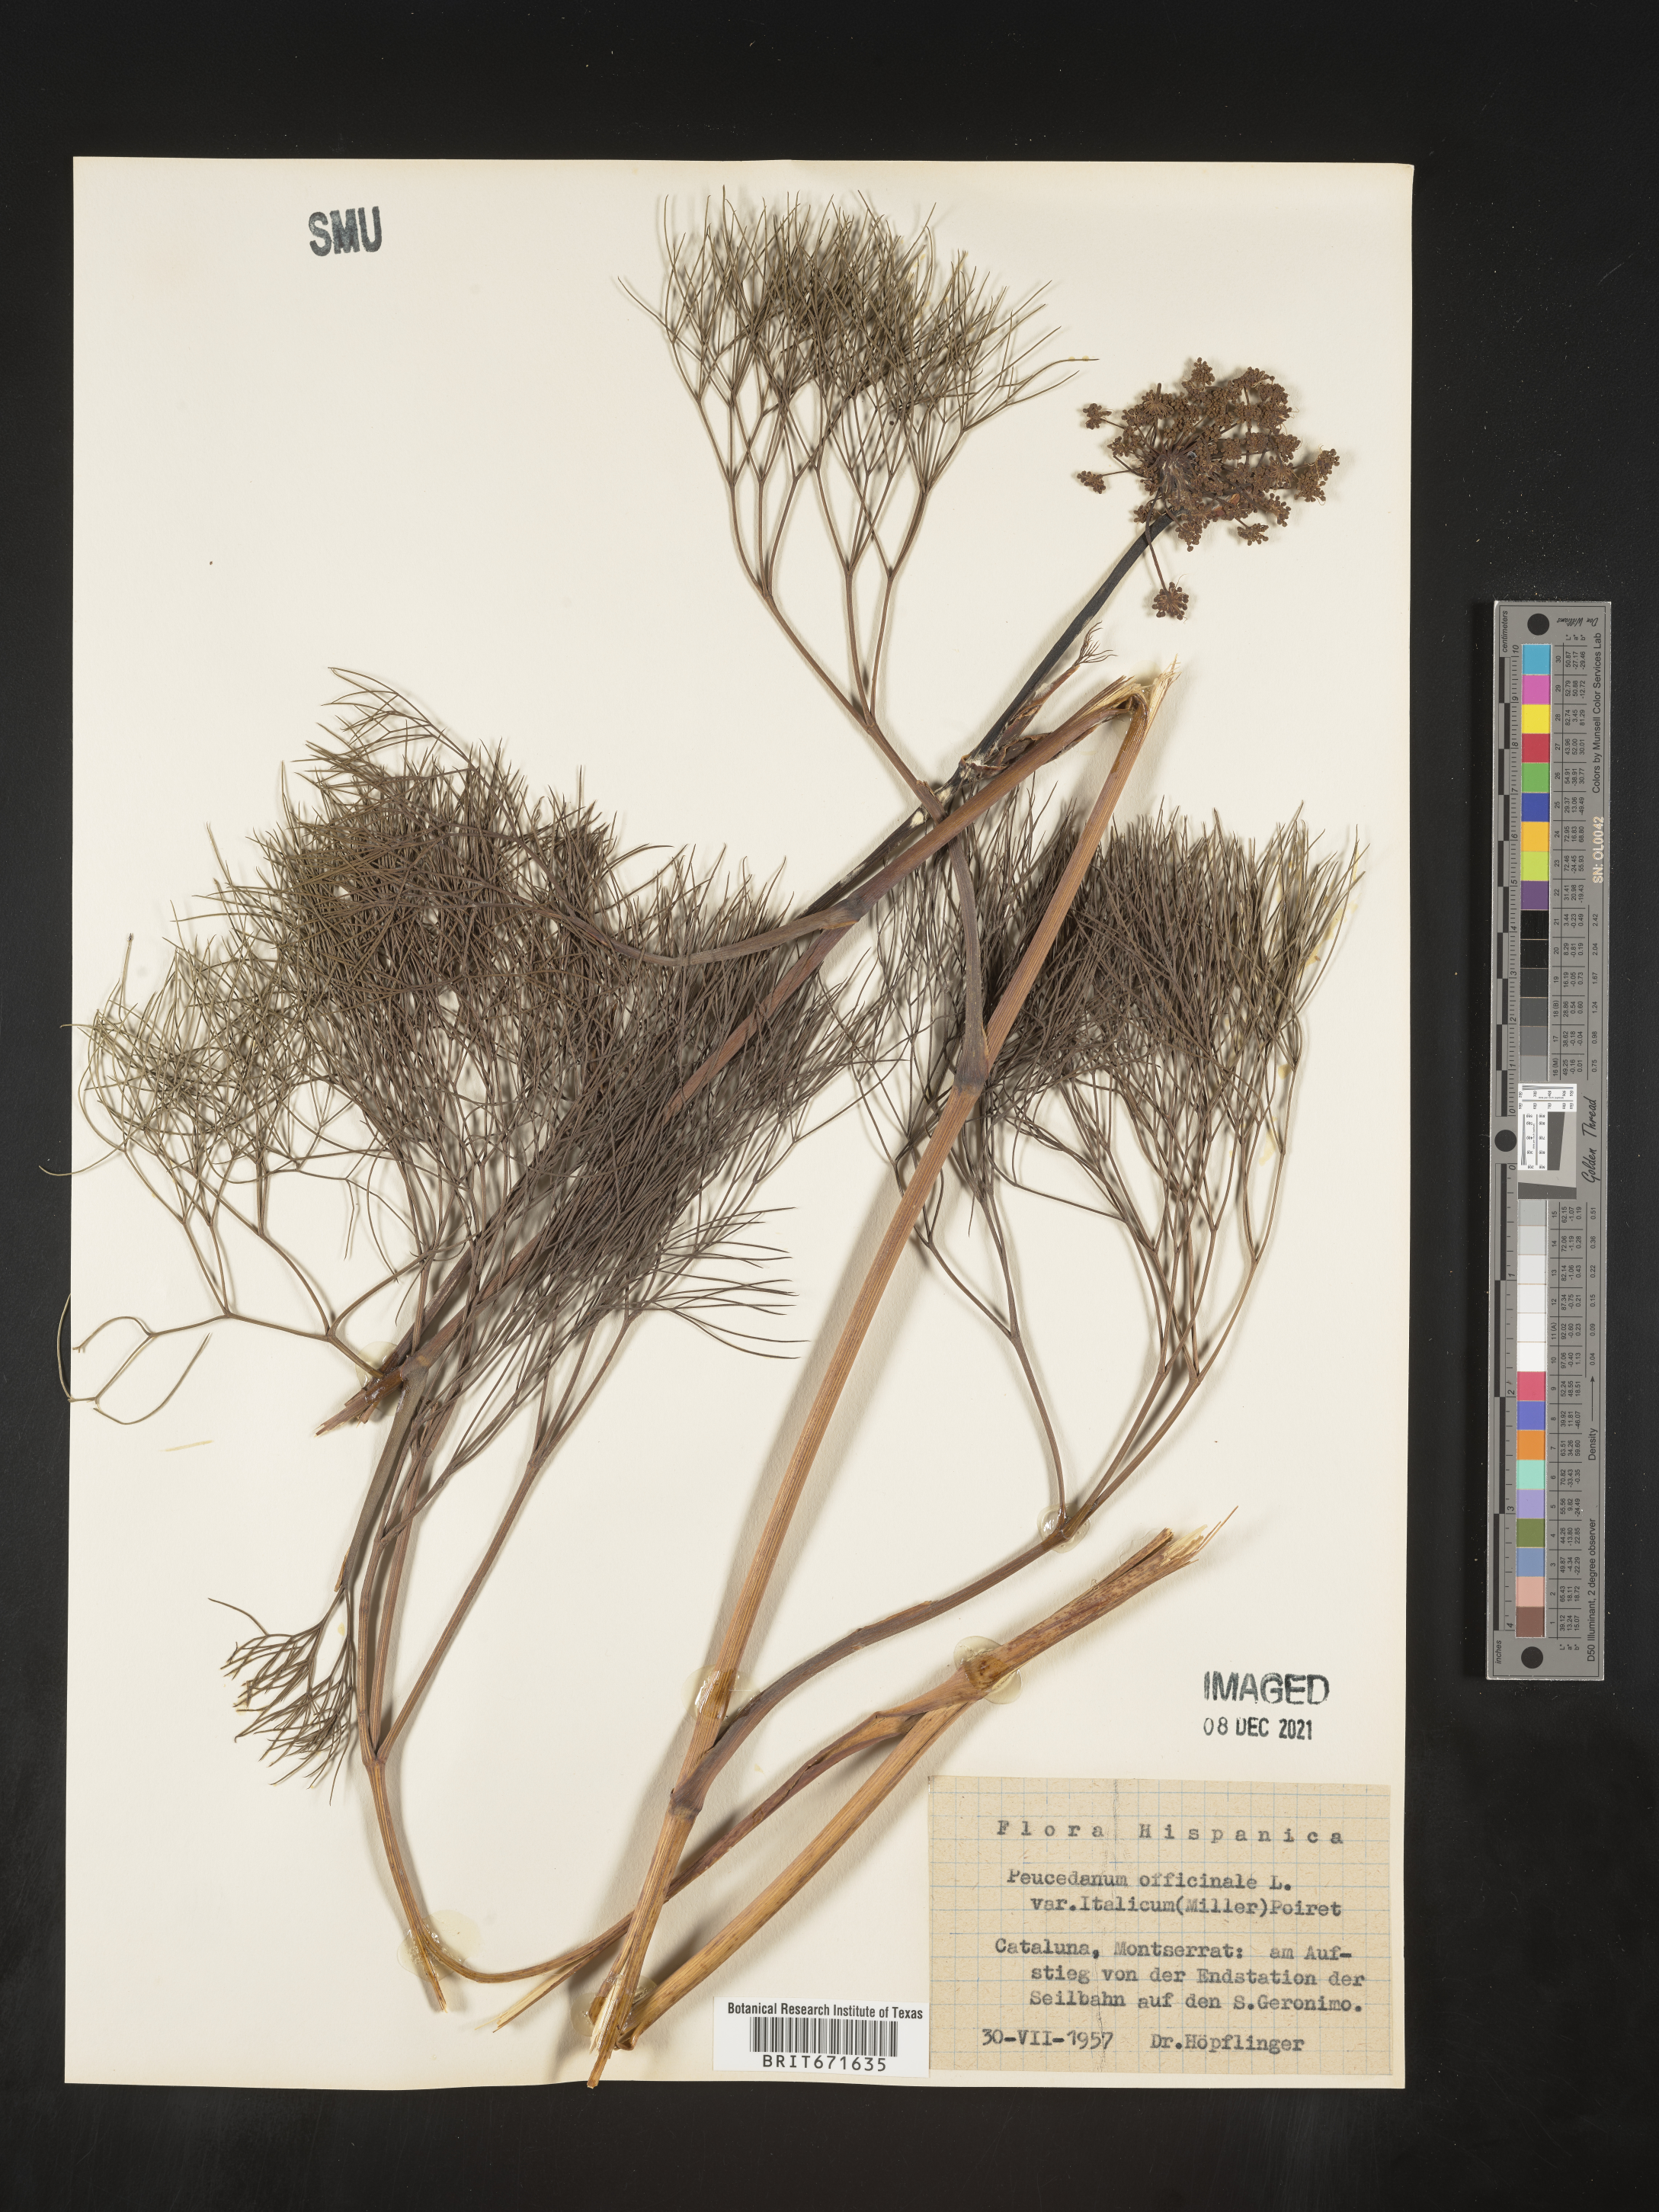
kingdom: Plantae
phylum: Tracheophyta
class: Magnoliopsida
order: Apiales
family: Apiaceae
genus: Peucedanum
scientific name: Peucedanum
